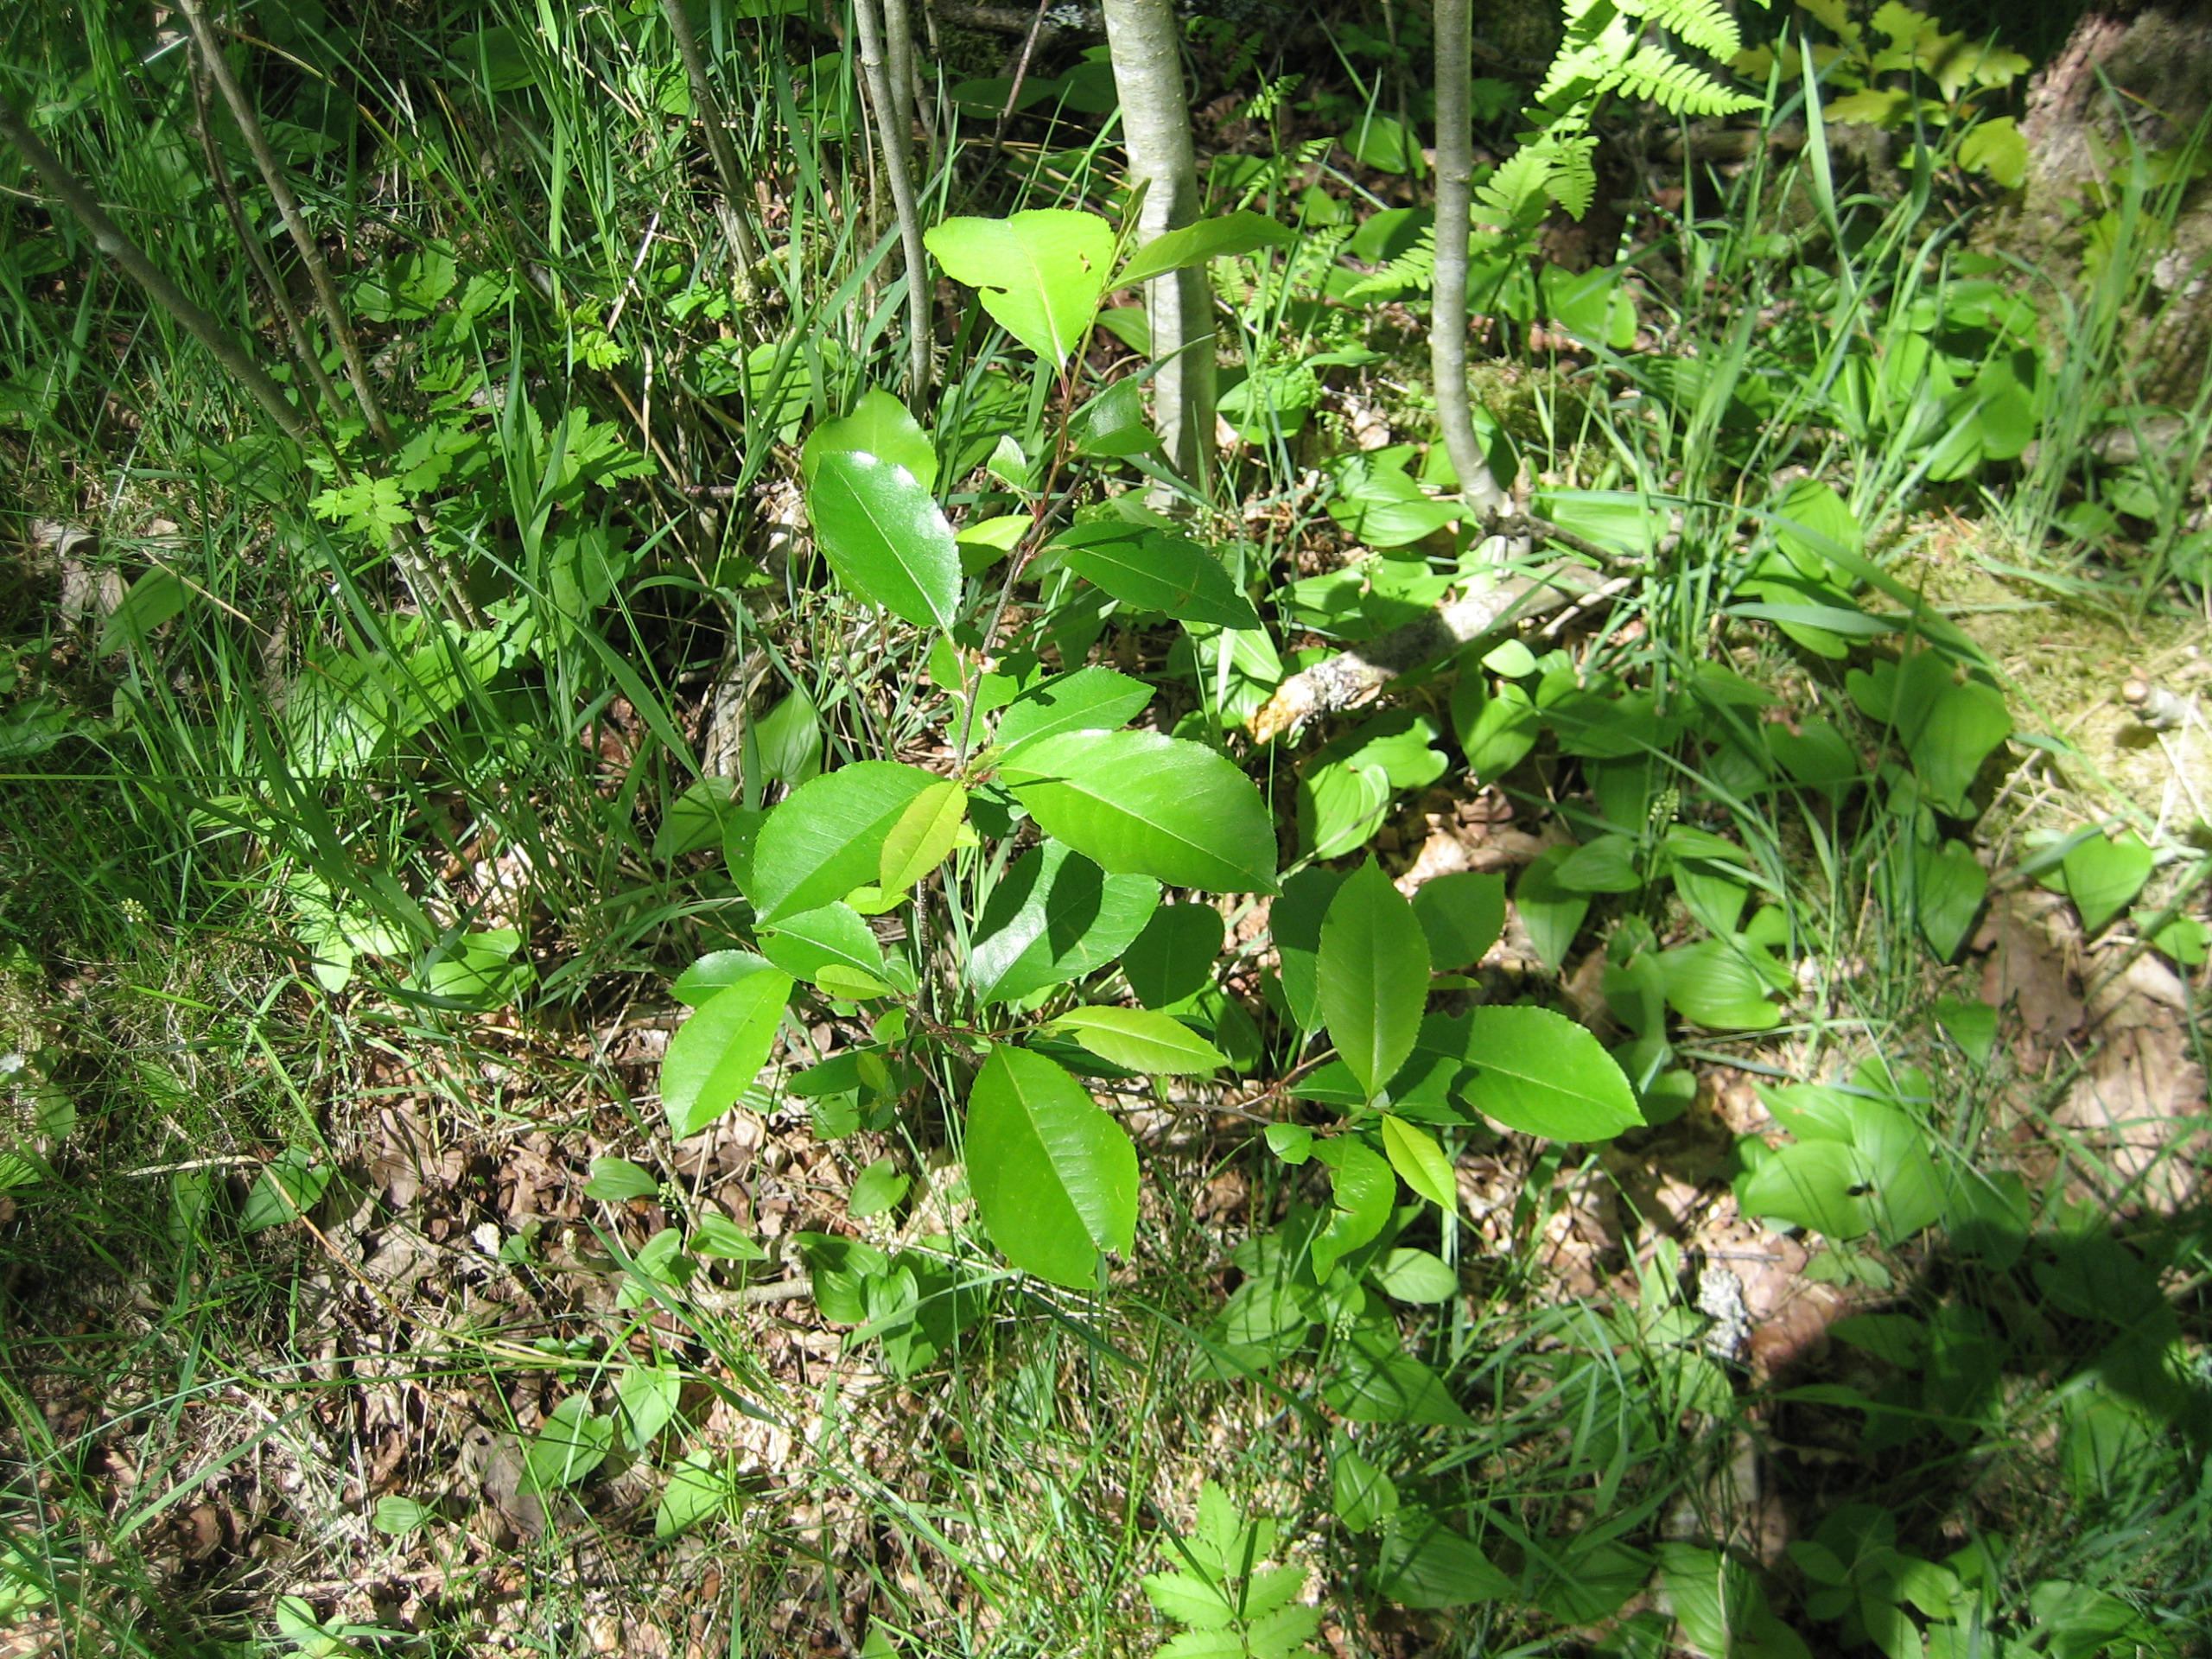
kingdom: Plantae
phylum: Tracheophyta
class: Magnoliopsida
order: Rosales
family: Rosaceae
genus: Prunus
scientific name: Prunus serotina
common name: Glansbladet hæg
